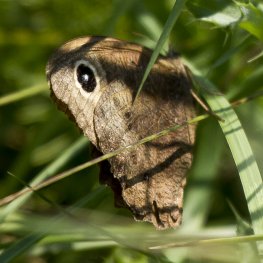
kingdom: Animalia
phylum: Arthropoda
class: Insecta
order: Lepidoptera
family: Nymphalidae
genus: Cercyonis
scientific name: Cercyonis pegala
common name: Common Wood-Nymph
